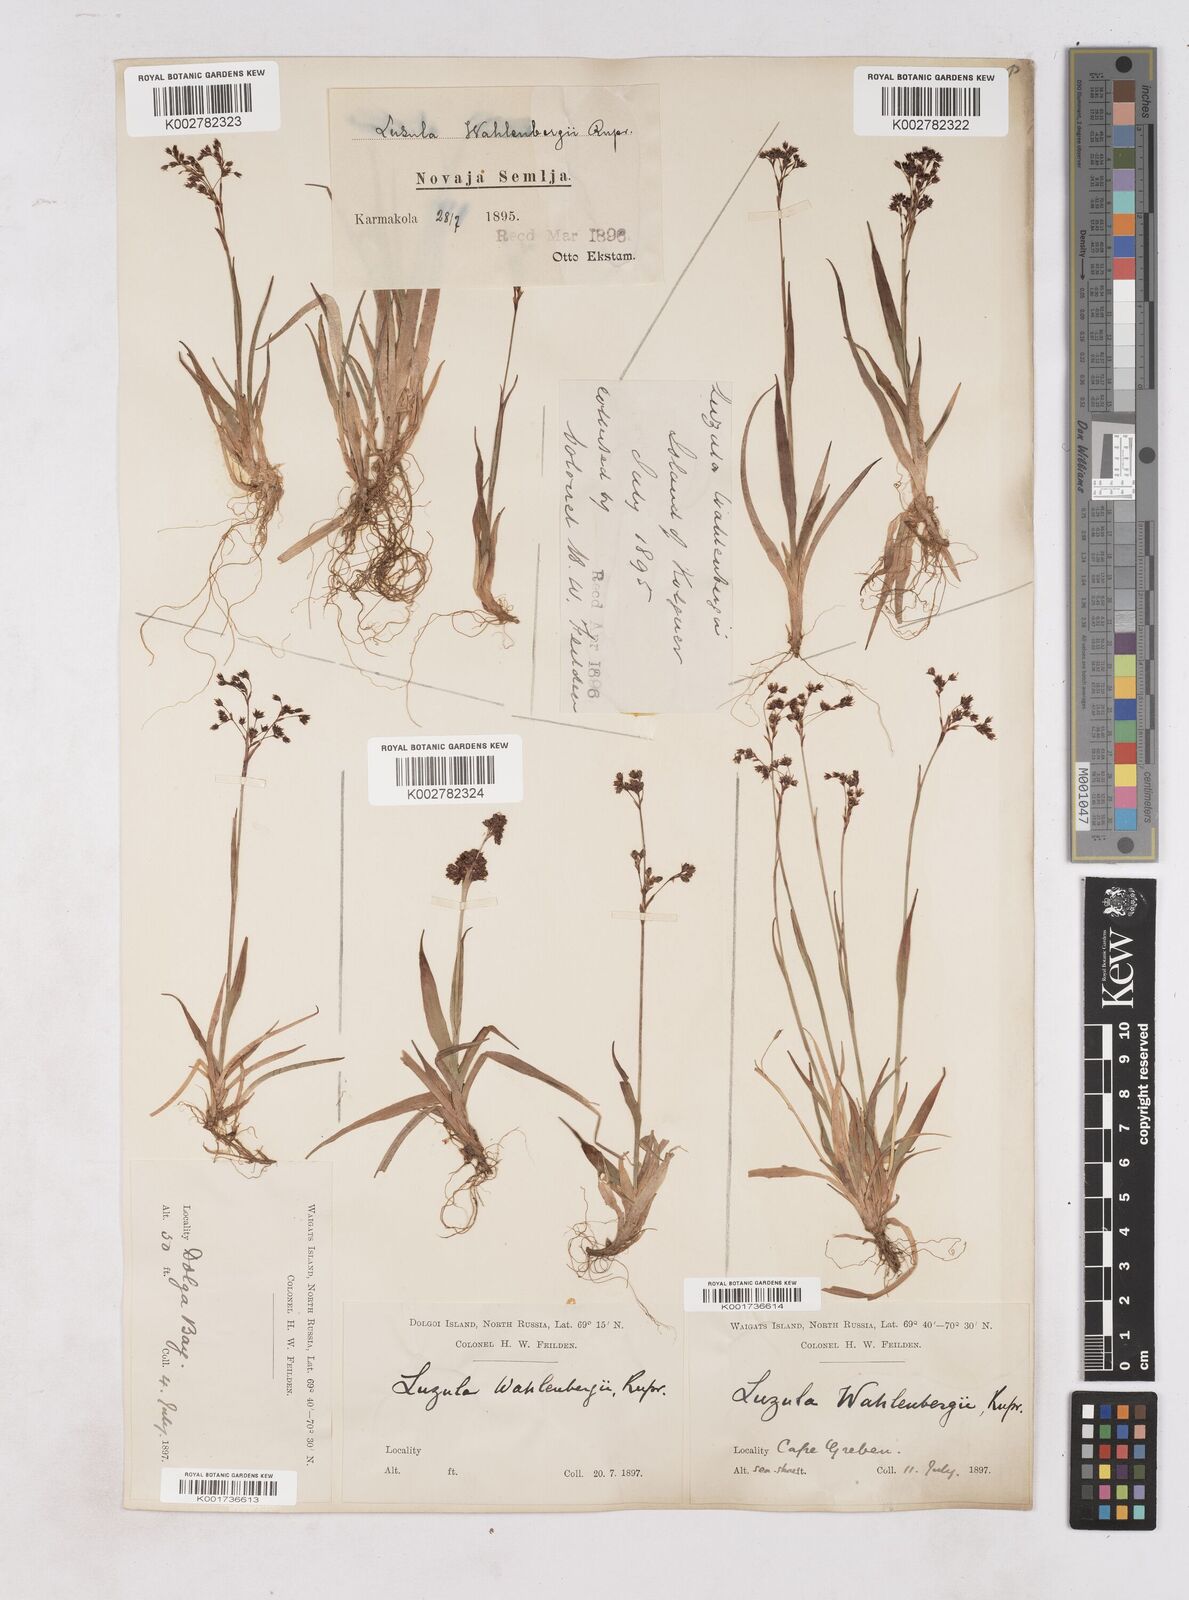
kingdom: Plantae
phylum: Tracheophyta
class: Liliopsida
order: Poales
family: Juncaceae
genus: Luzula
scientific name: Luzula alpinopilosa
